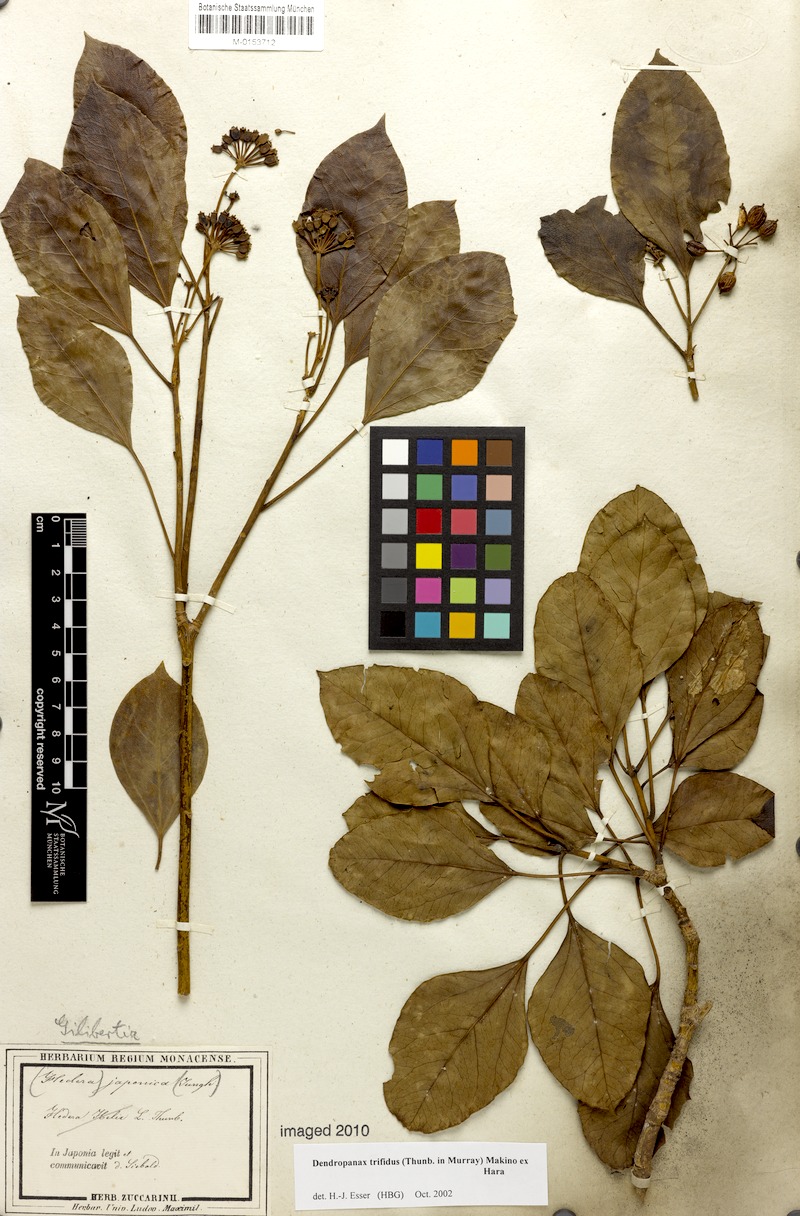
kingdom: Plantae
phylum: Tracheophyta
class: Magnoliopsida
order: Apiales
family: Araliaceae
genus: Dendropanax
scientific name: Dendropanax trifidus
